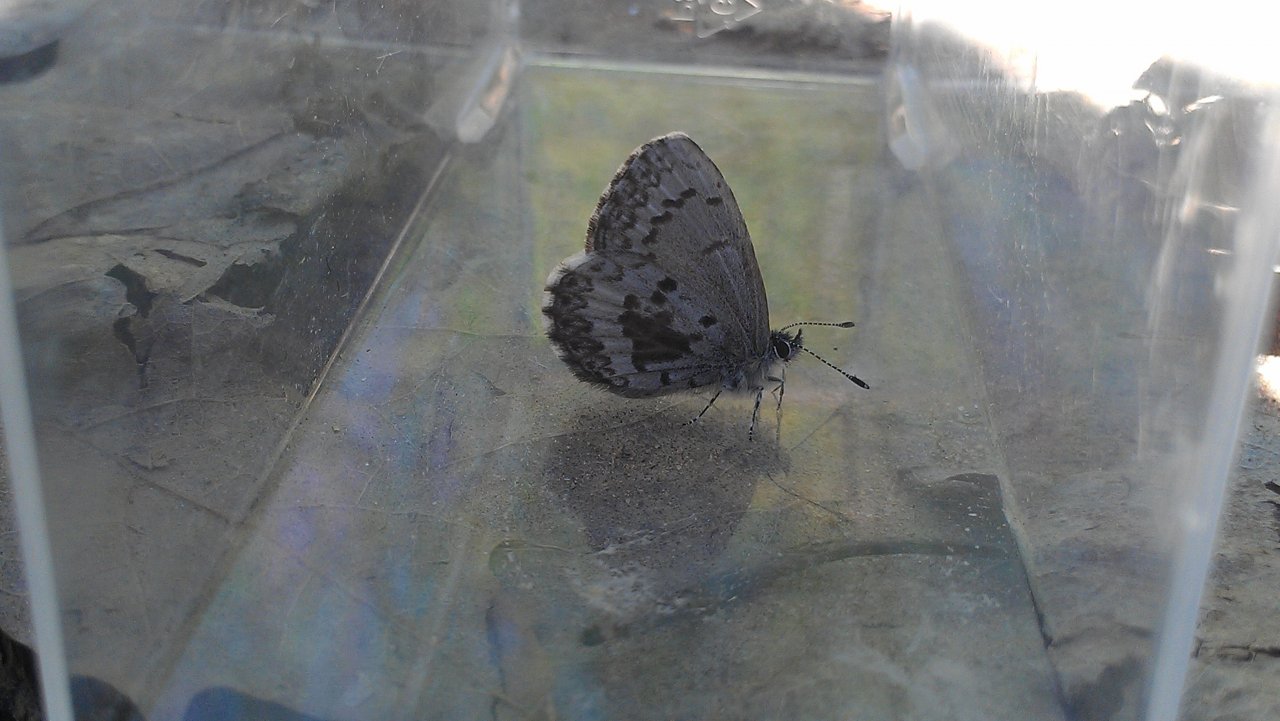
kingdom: Animalia
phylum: Arthropoda
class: Insecta
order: Lepidoptera
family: Lycaenidae
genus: Celastrina
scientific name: Celastrina lucia
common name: Northern Spring Azure
